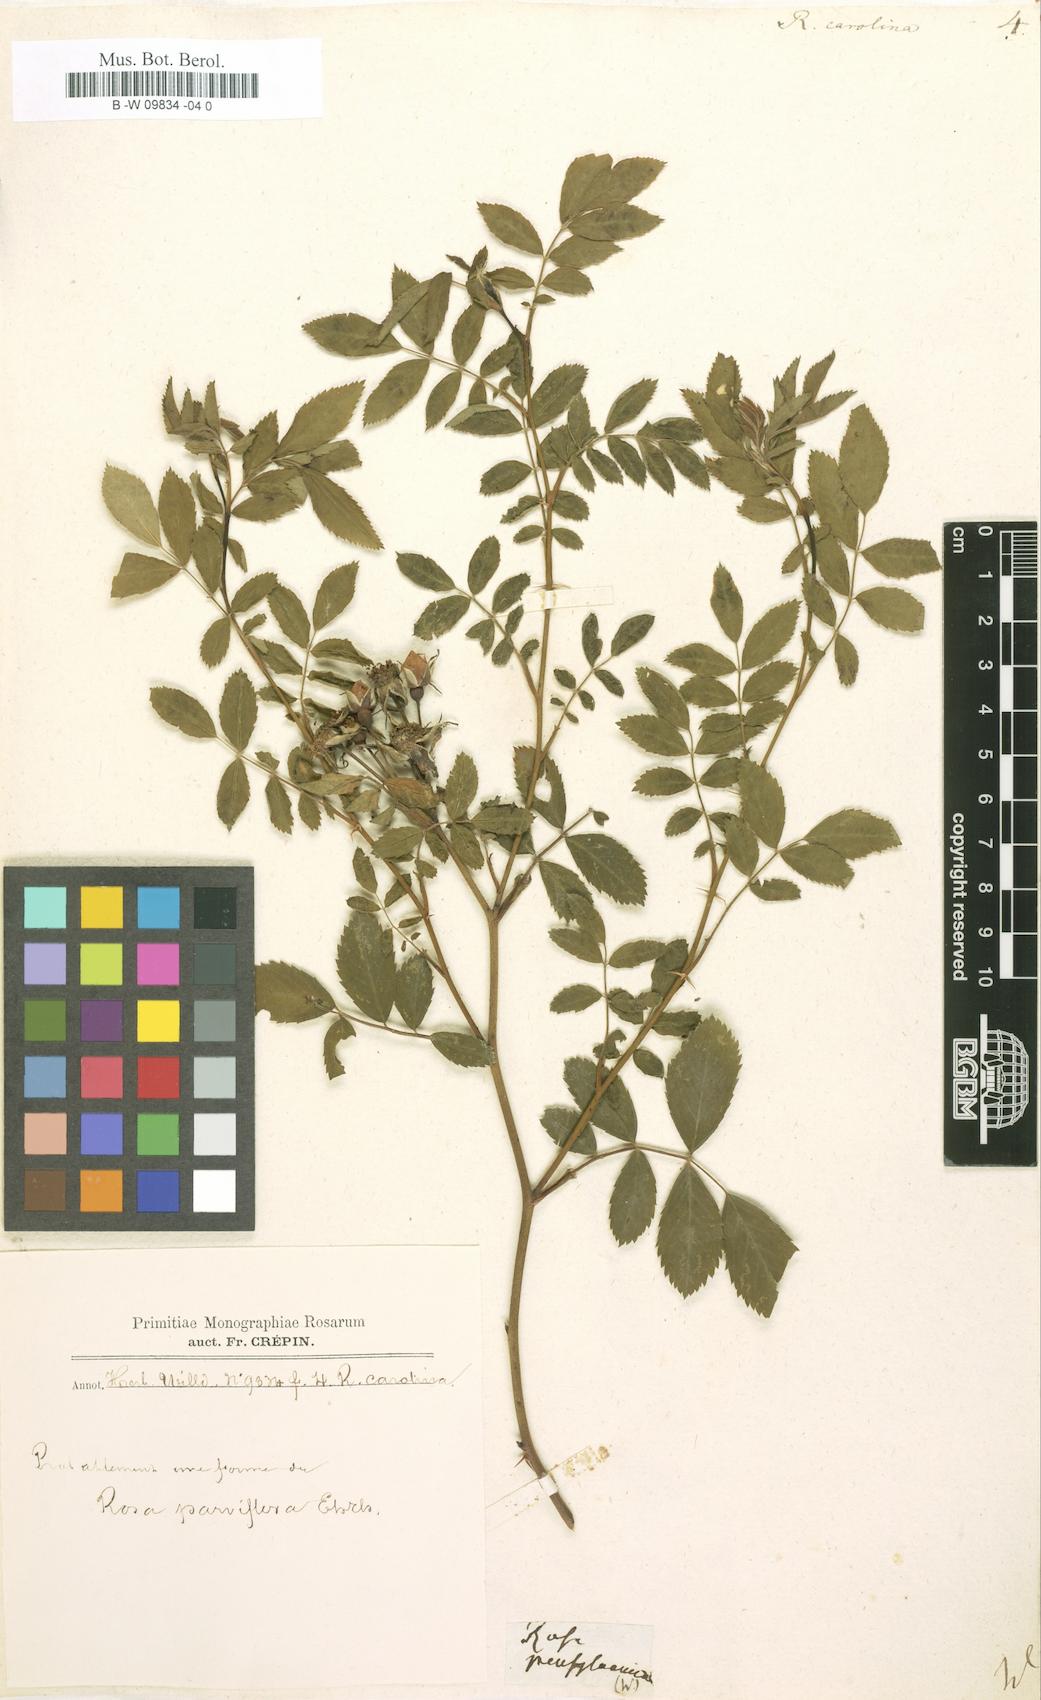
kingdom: Plantae
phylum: Tracheophyta
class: Magnoliopsida
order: Rosales
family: Rosaceae
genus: Rosa
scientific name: Rosa carolina
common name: Pasture rose
